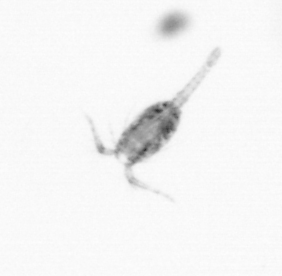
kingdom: Animalia
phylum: Arthropoda
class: Copepoda
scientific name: Copepoda
